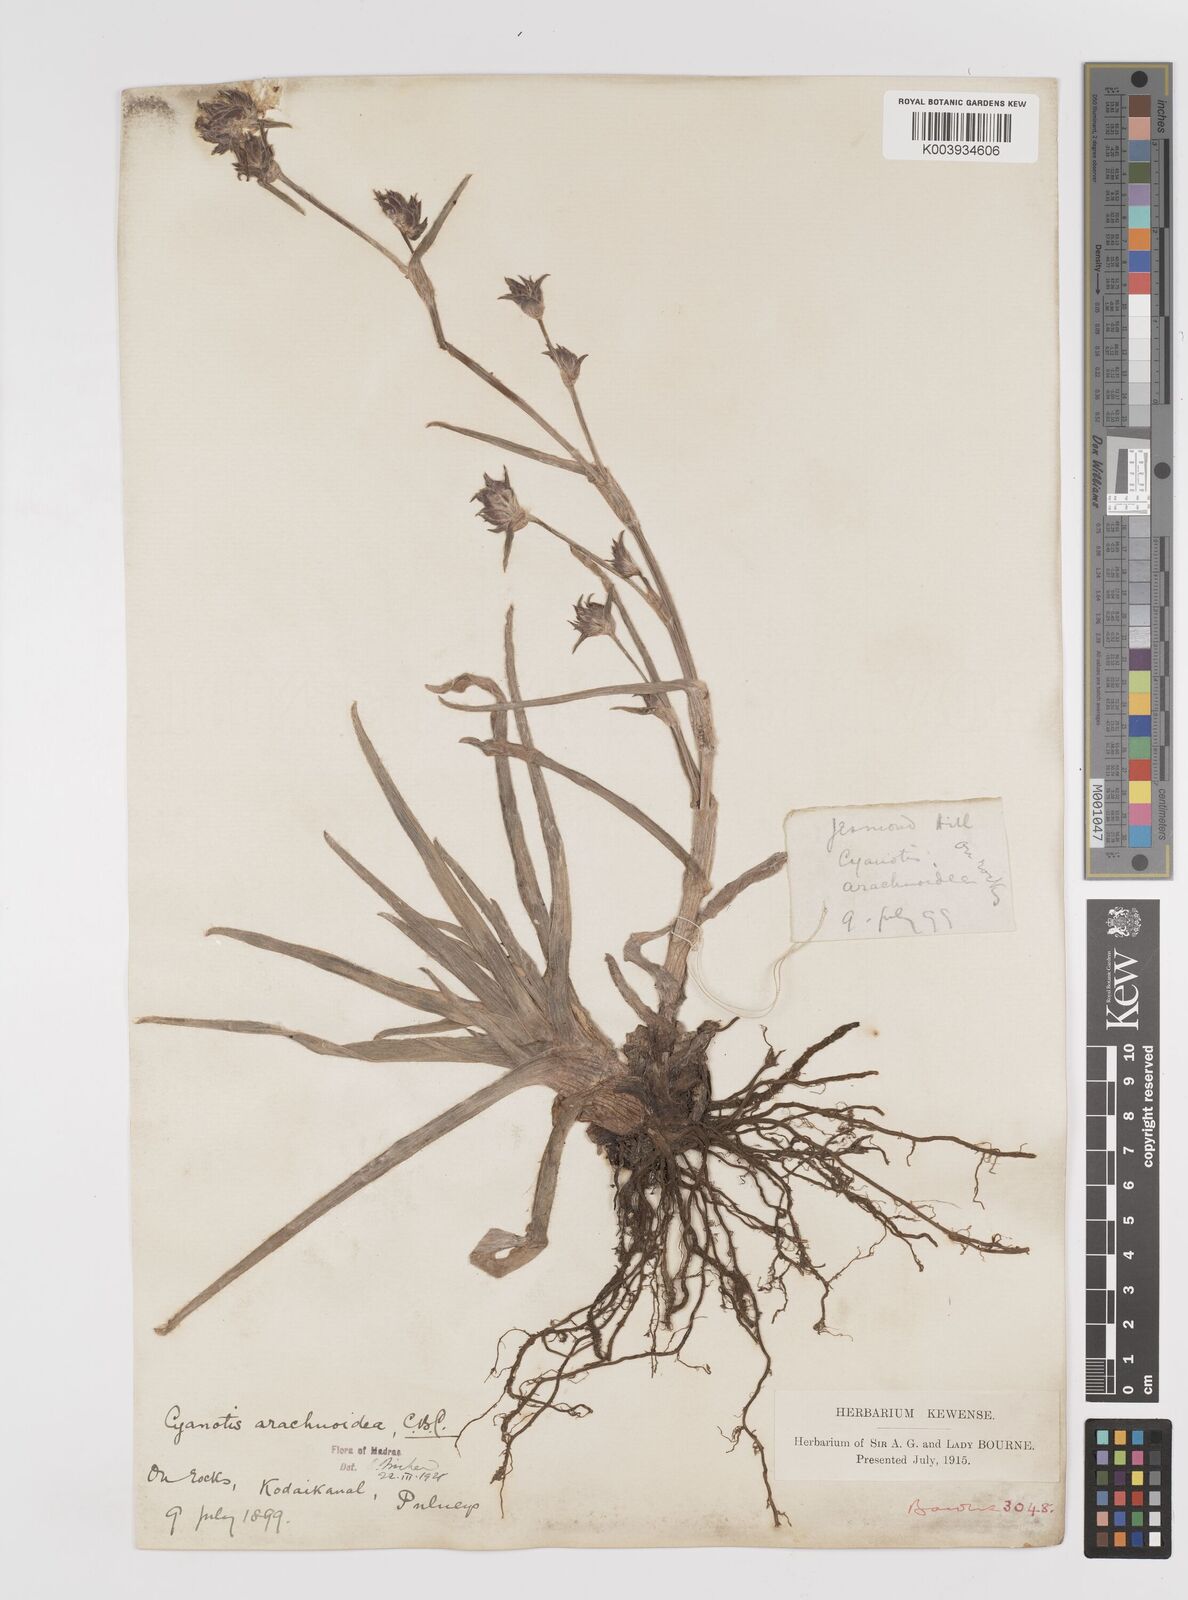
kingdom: Plantae
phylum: Tracheophyta
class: Liliopsida
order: Commelinales
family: Commelinaceae
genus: Cyanotis
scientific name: Cyanotis arachnoidea
